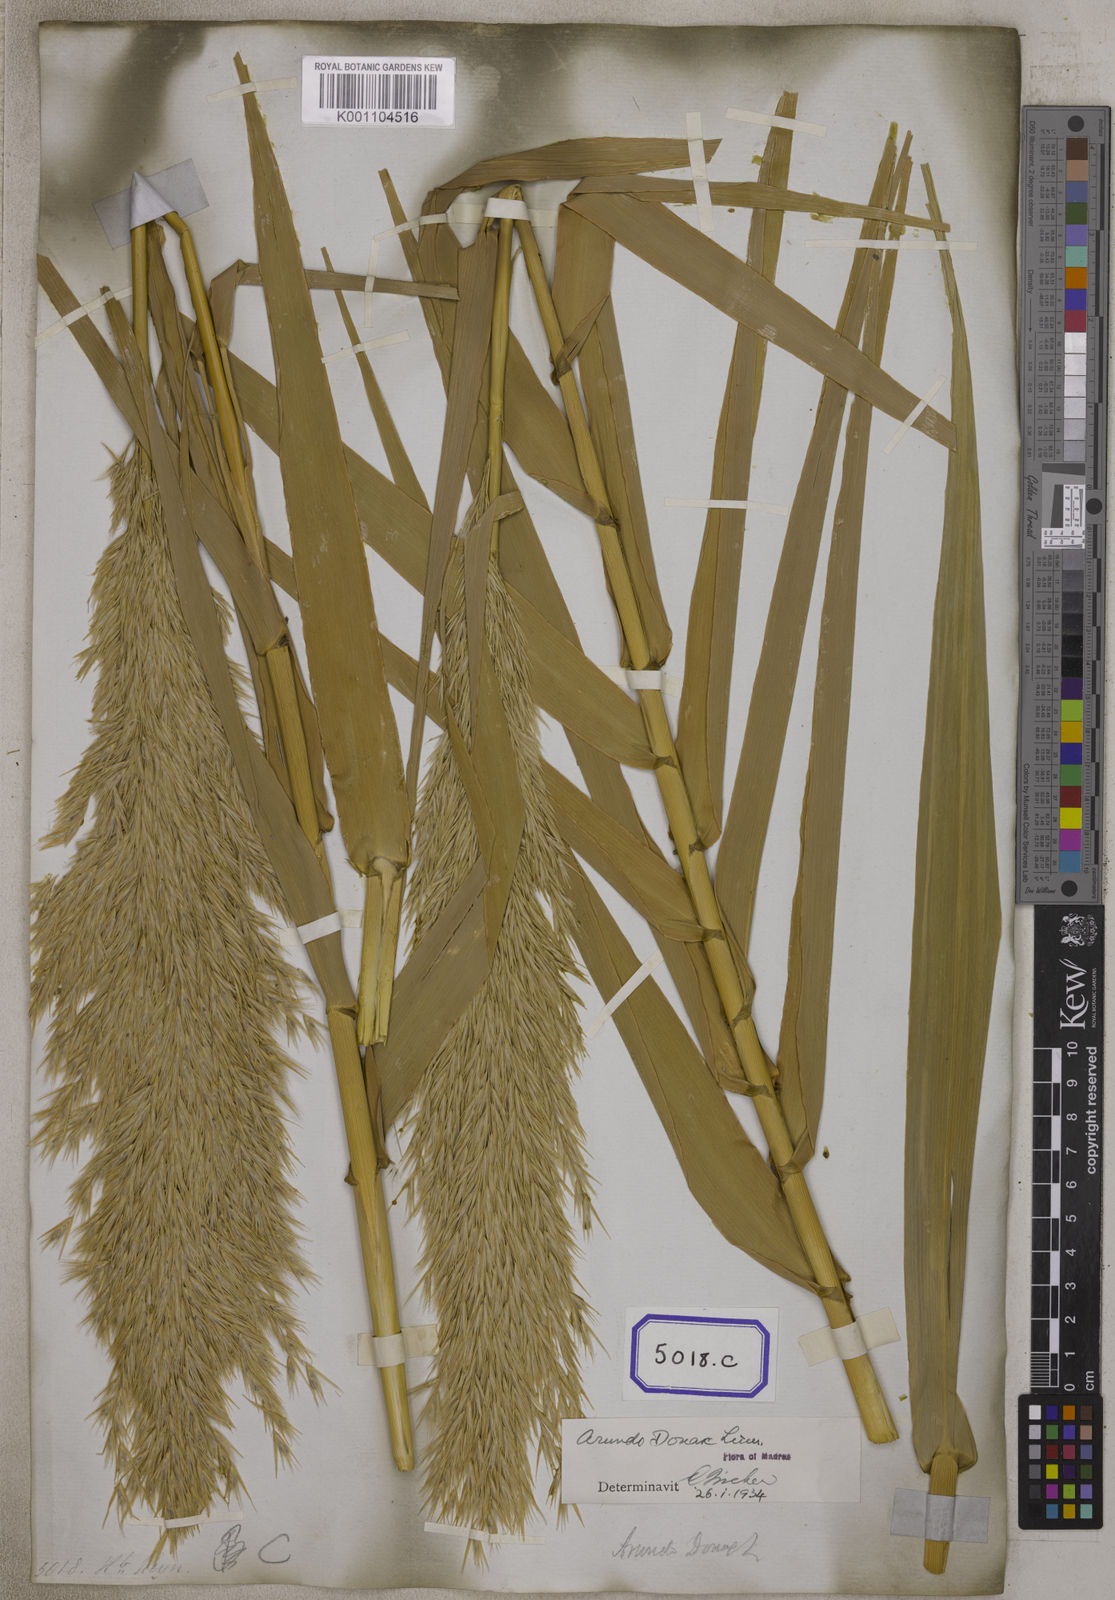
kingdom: Plantae
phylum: Tracheophyta
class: Liliopsida
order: Poales
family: Poaceae
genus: Arundo
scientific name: Arundo
